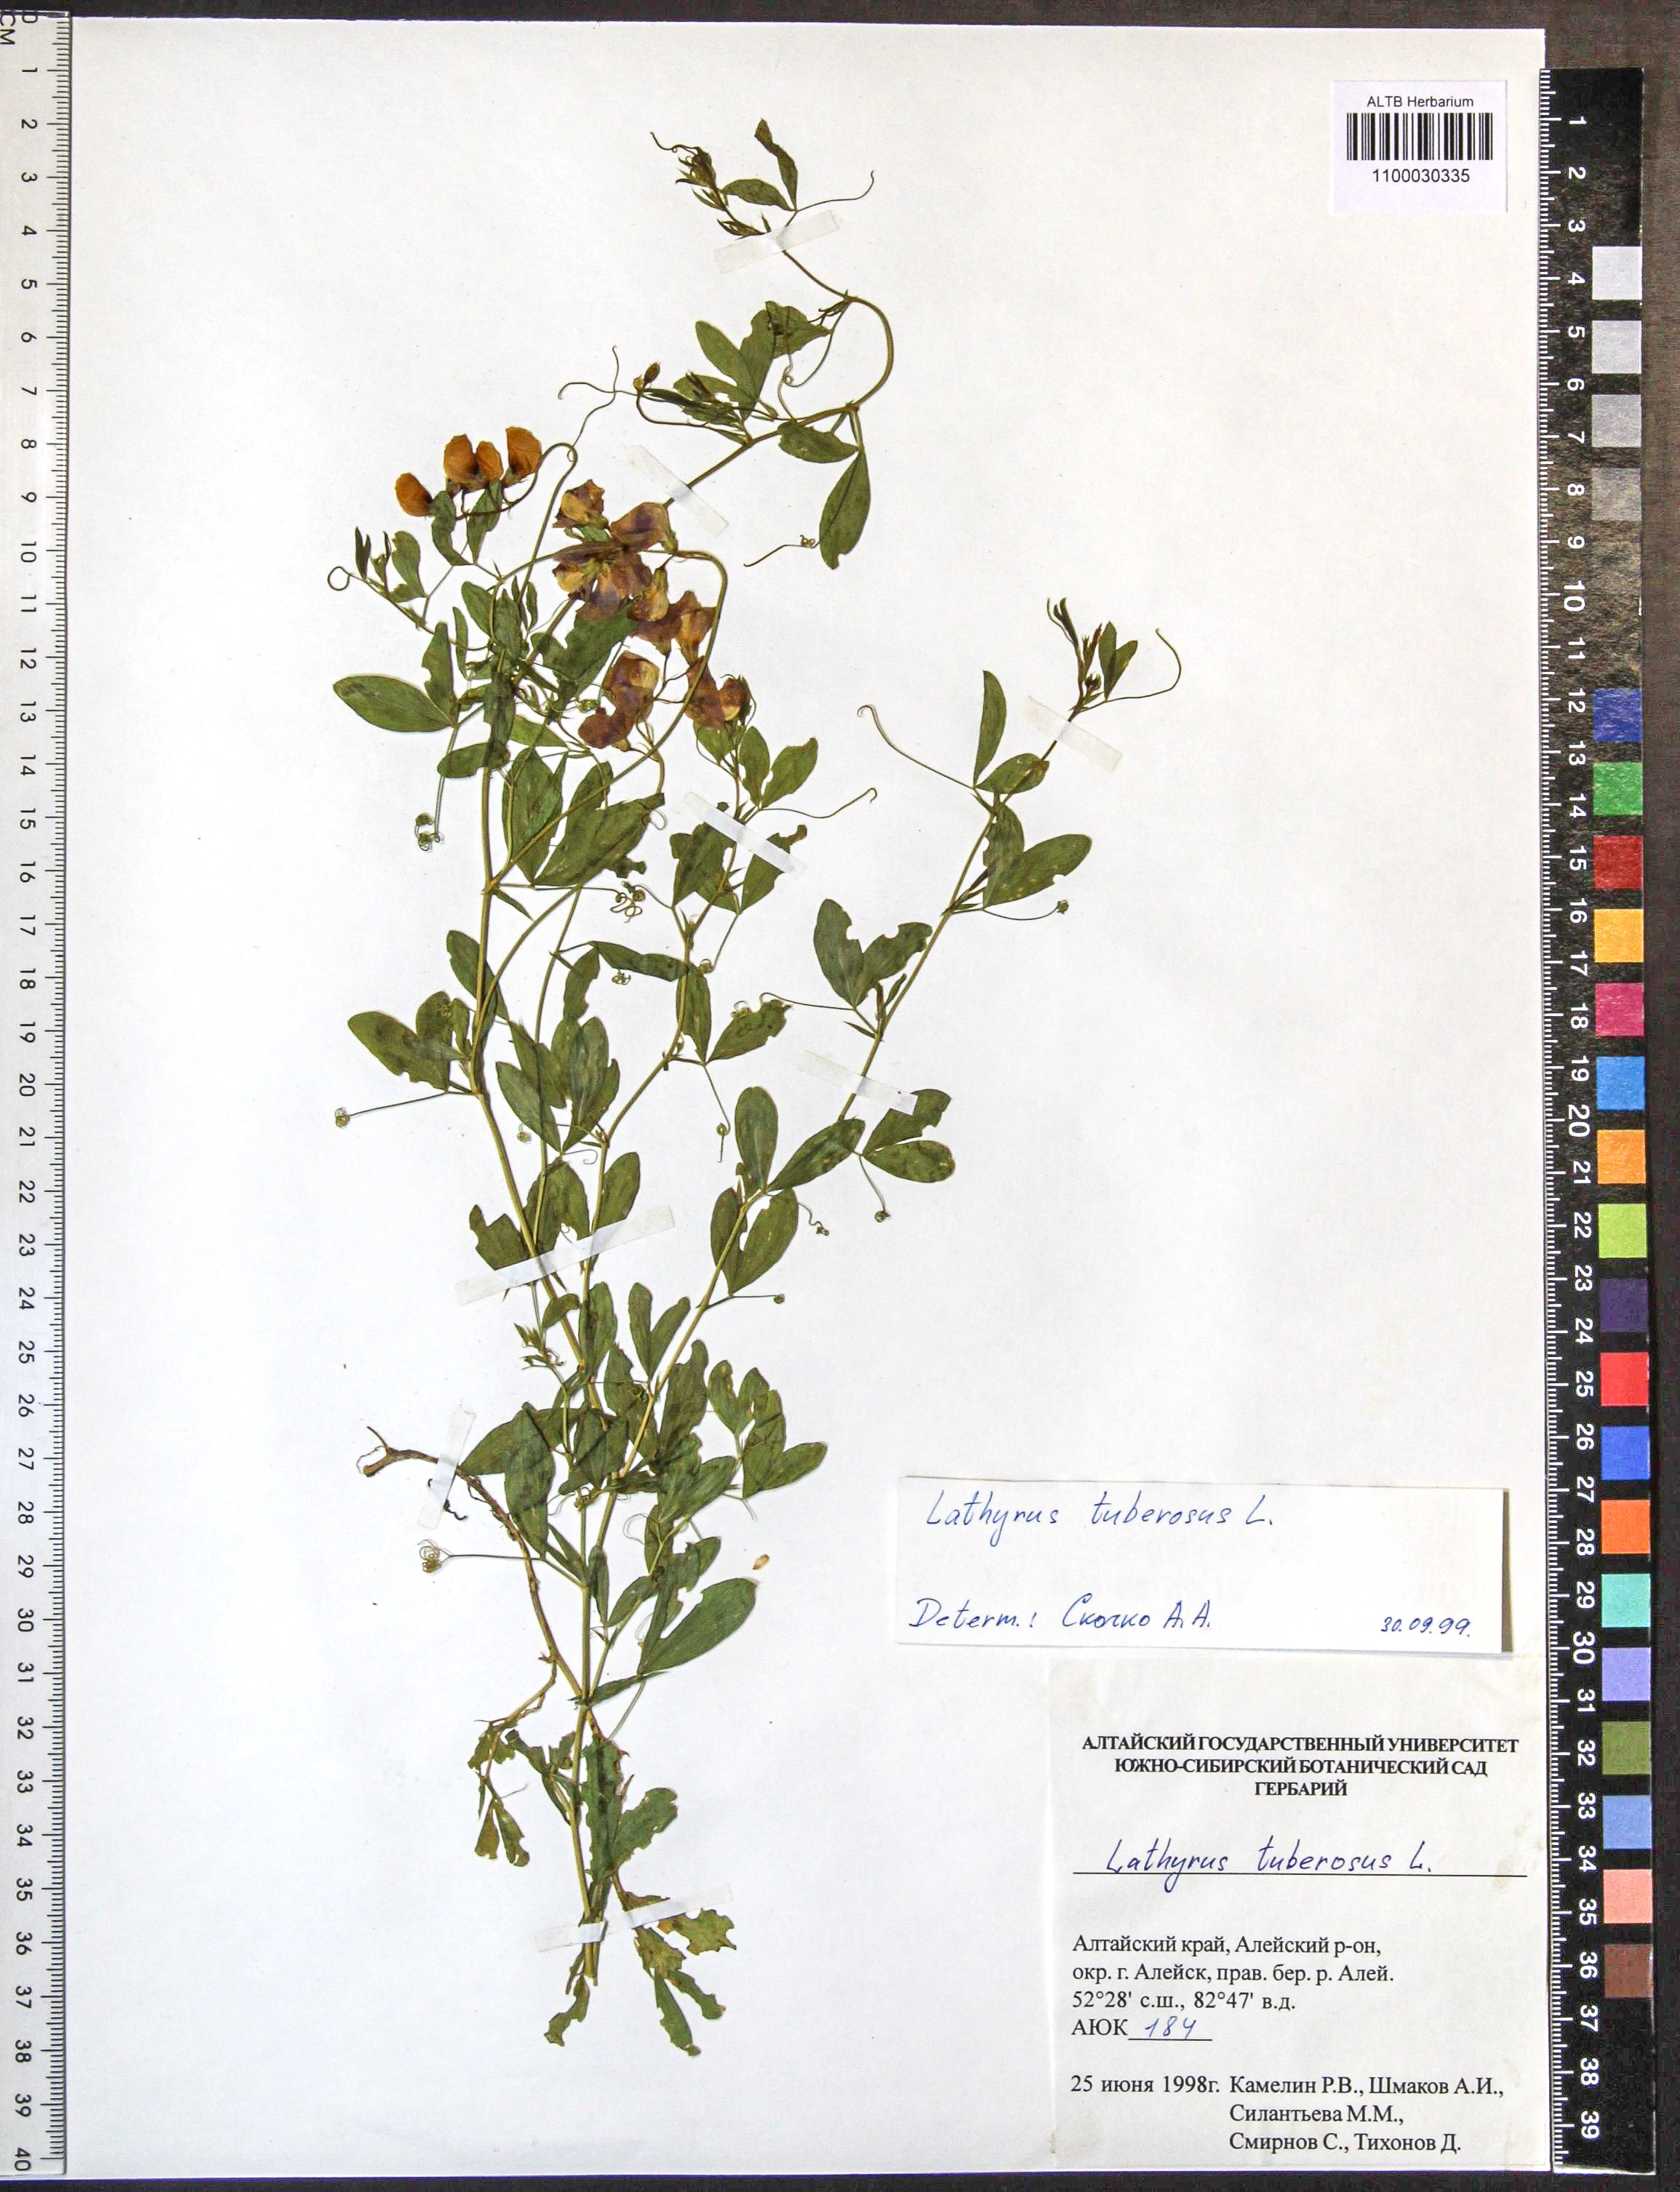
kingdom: Plantae
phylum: Tracheophyta
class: Magnoliopsida
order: Fabales
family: Fabaceae
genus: Lathyrus
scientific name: Lathyrus tuberosus
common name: Tuberous pea
